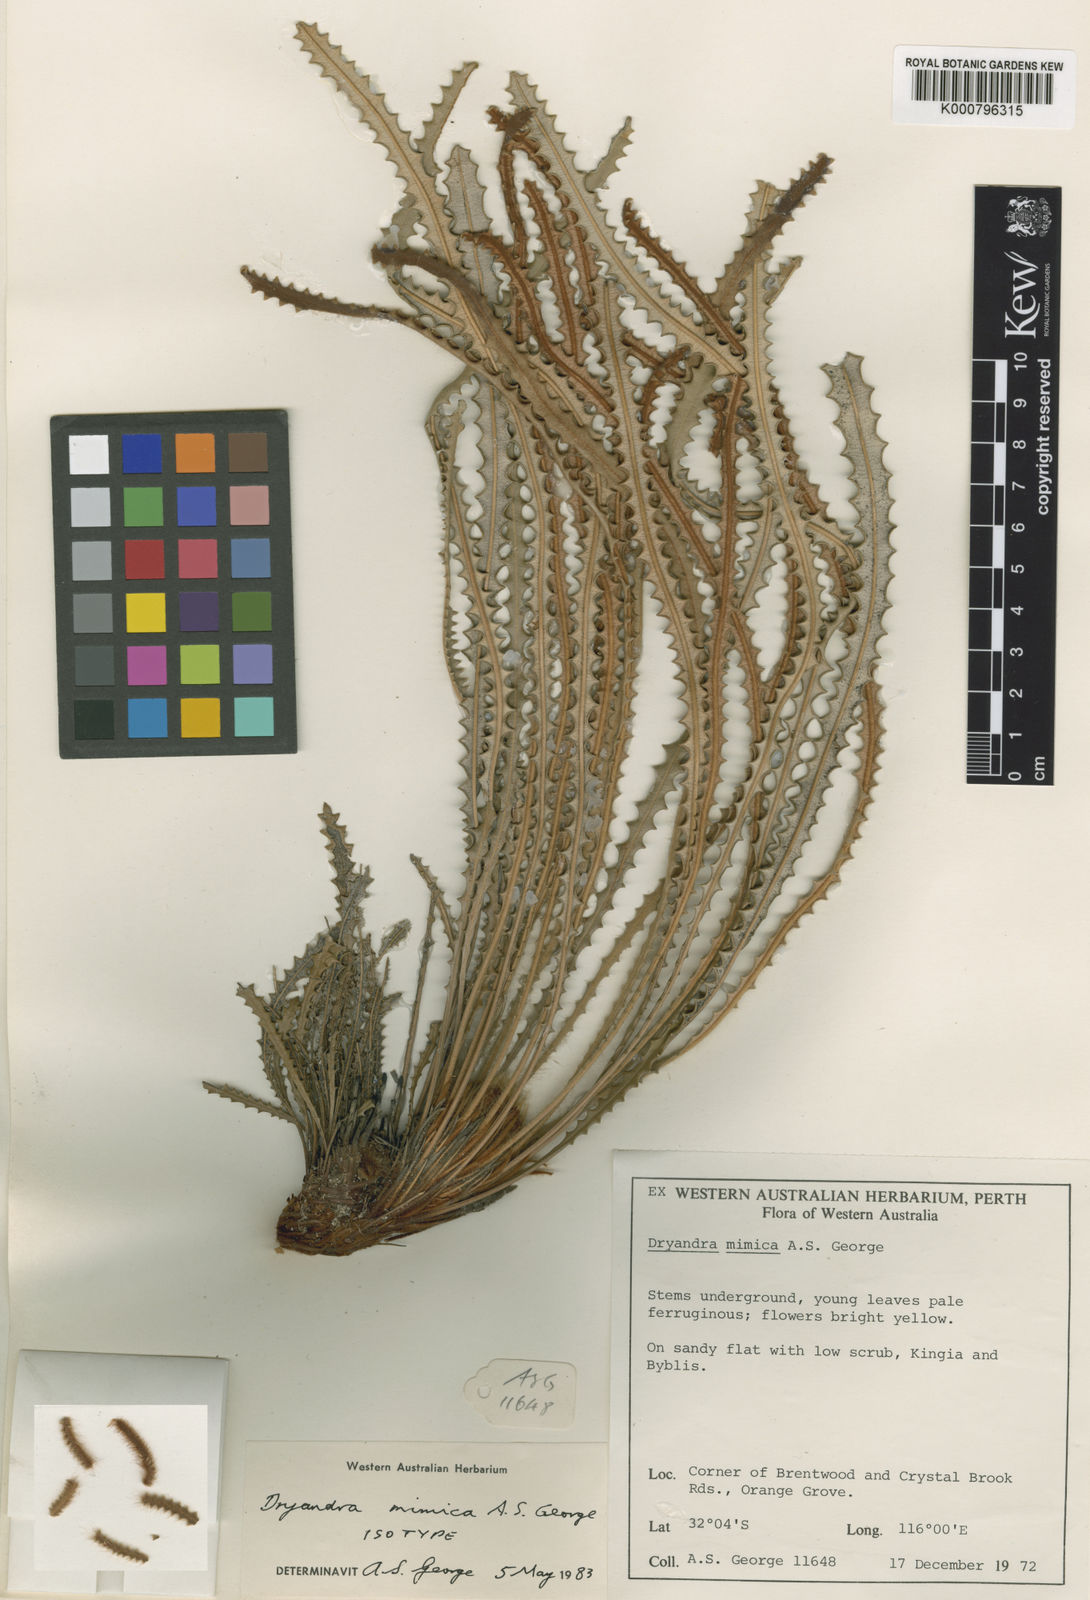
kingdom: Plantae
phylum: Tracheophyta
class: Magnoliopsida
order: Proteales
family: Proteaceae
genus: Banksia
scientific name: Banksia mimica
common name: Summer honeypot
